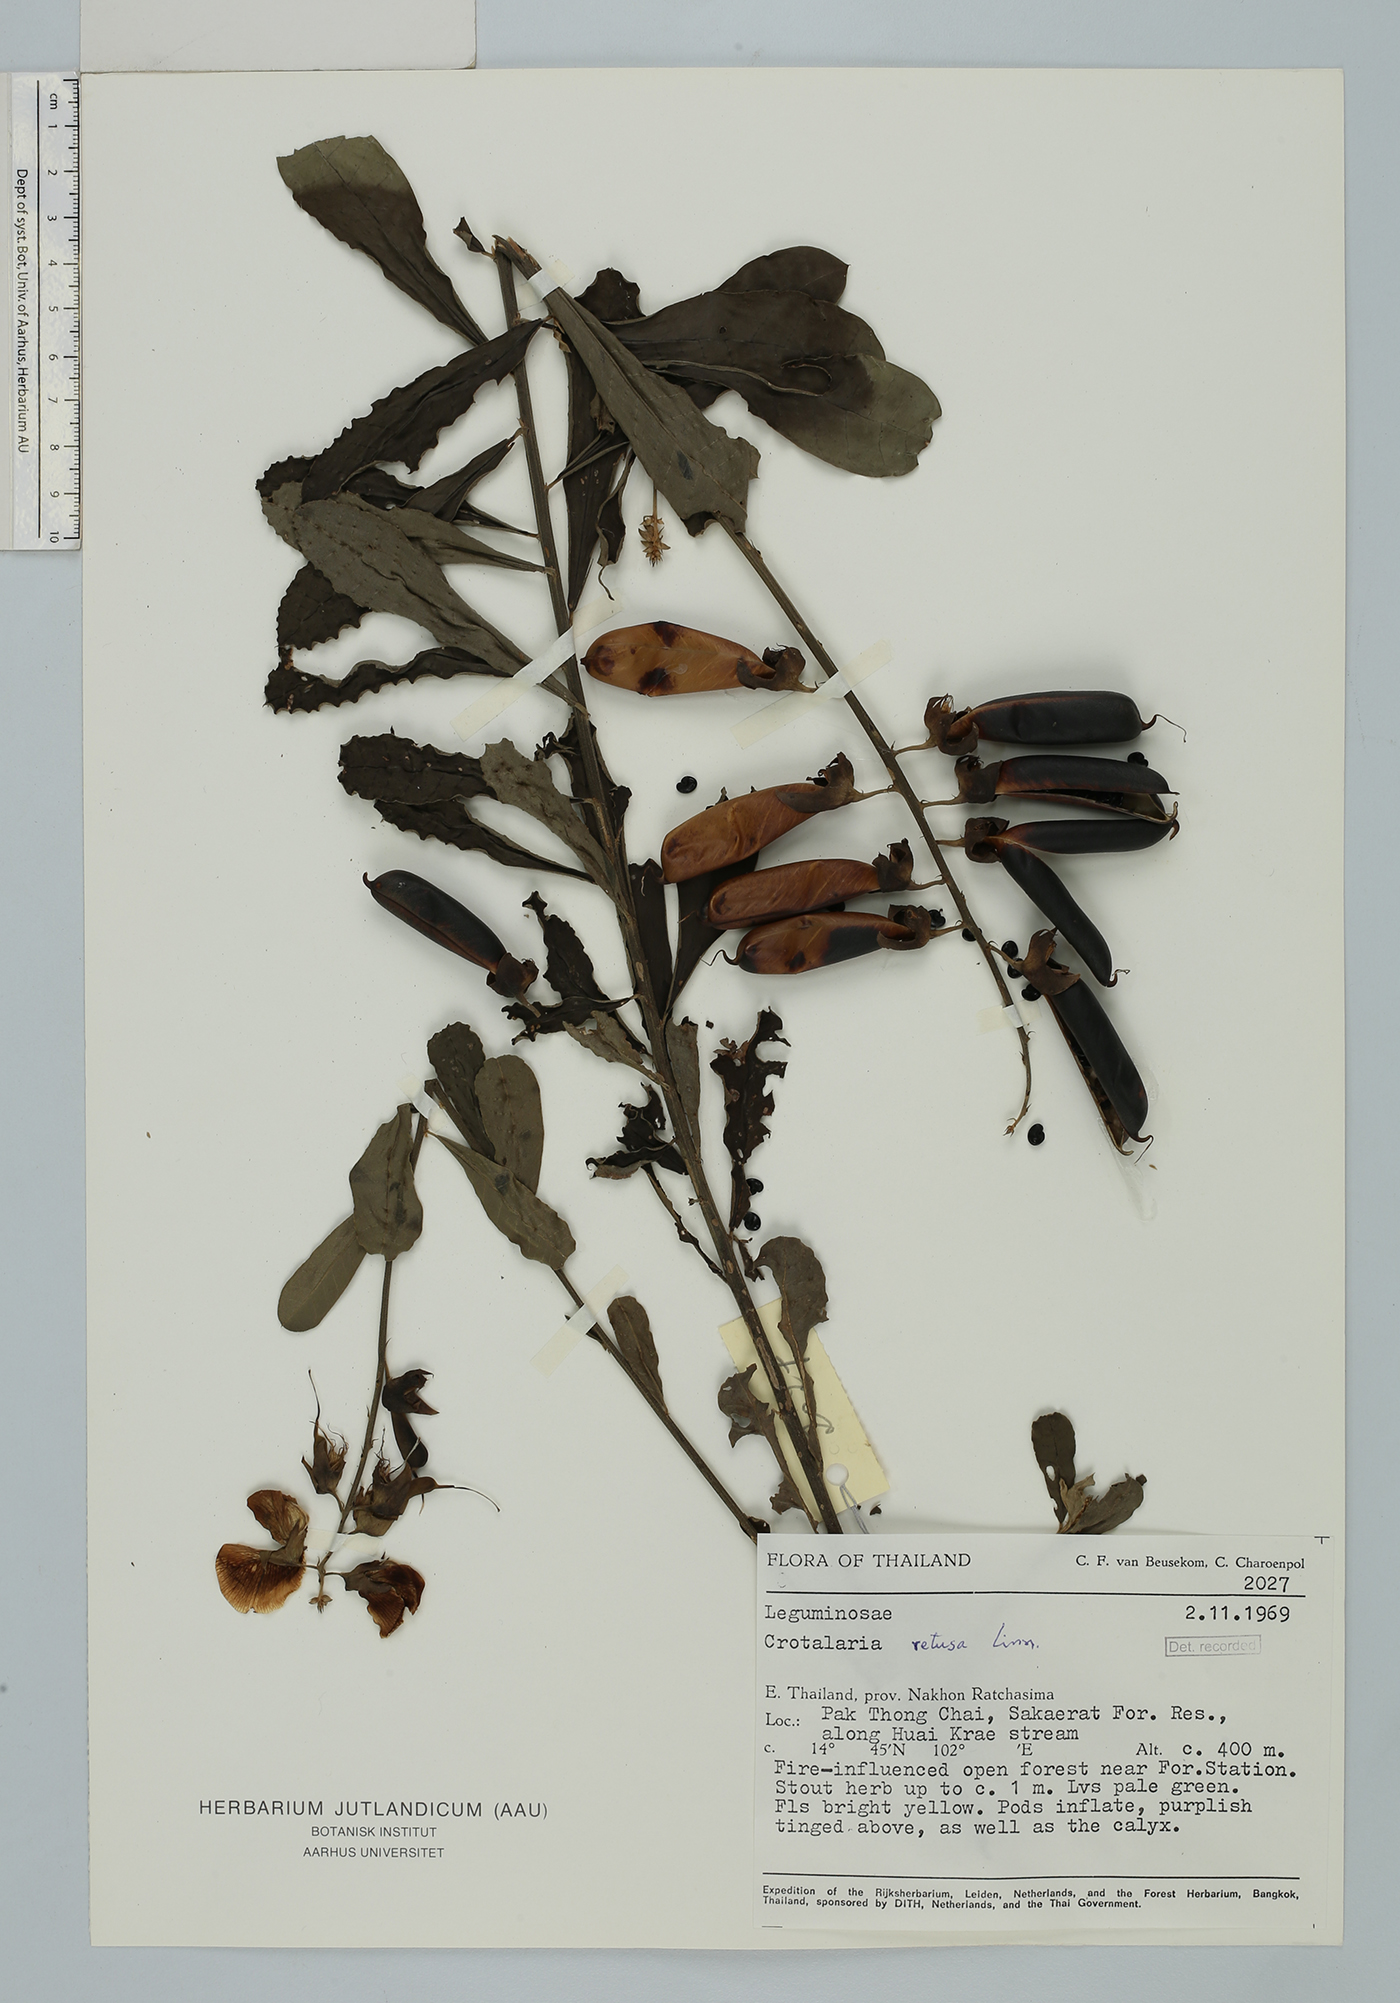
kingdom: Plantae
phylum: Tracheophyta
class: Magnoliopsida
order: Fabales
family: Fabaceae
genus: Crotalaria
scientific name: Crotalaria retusa
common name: Rattleweed
